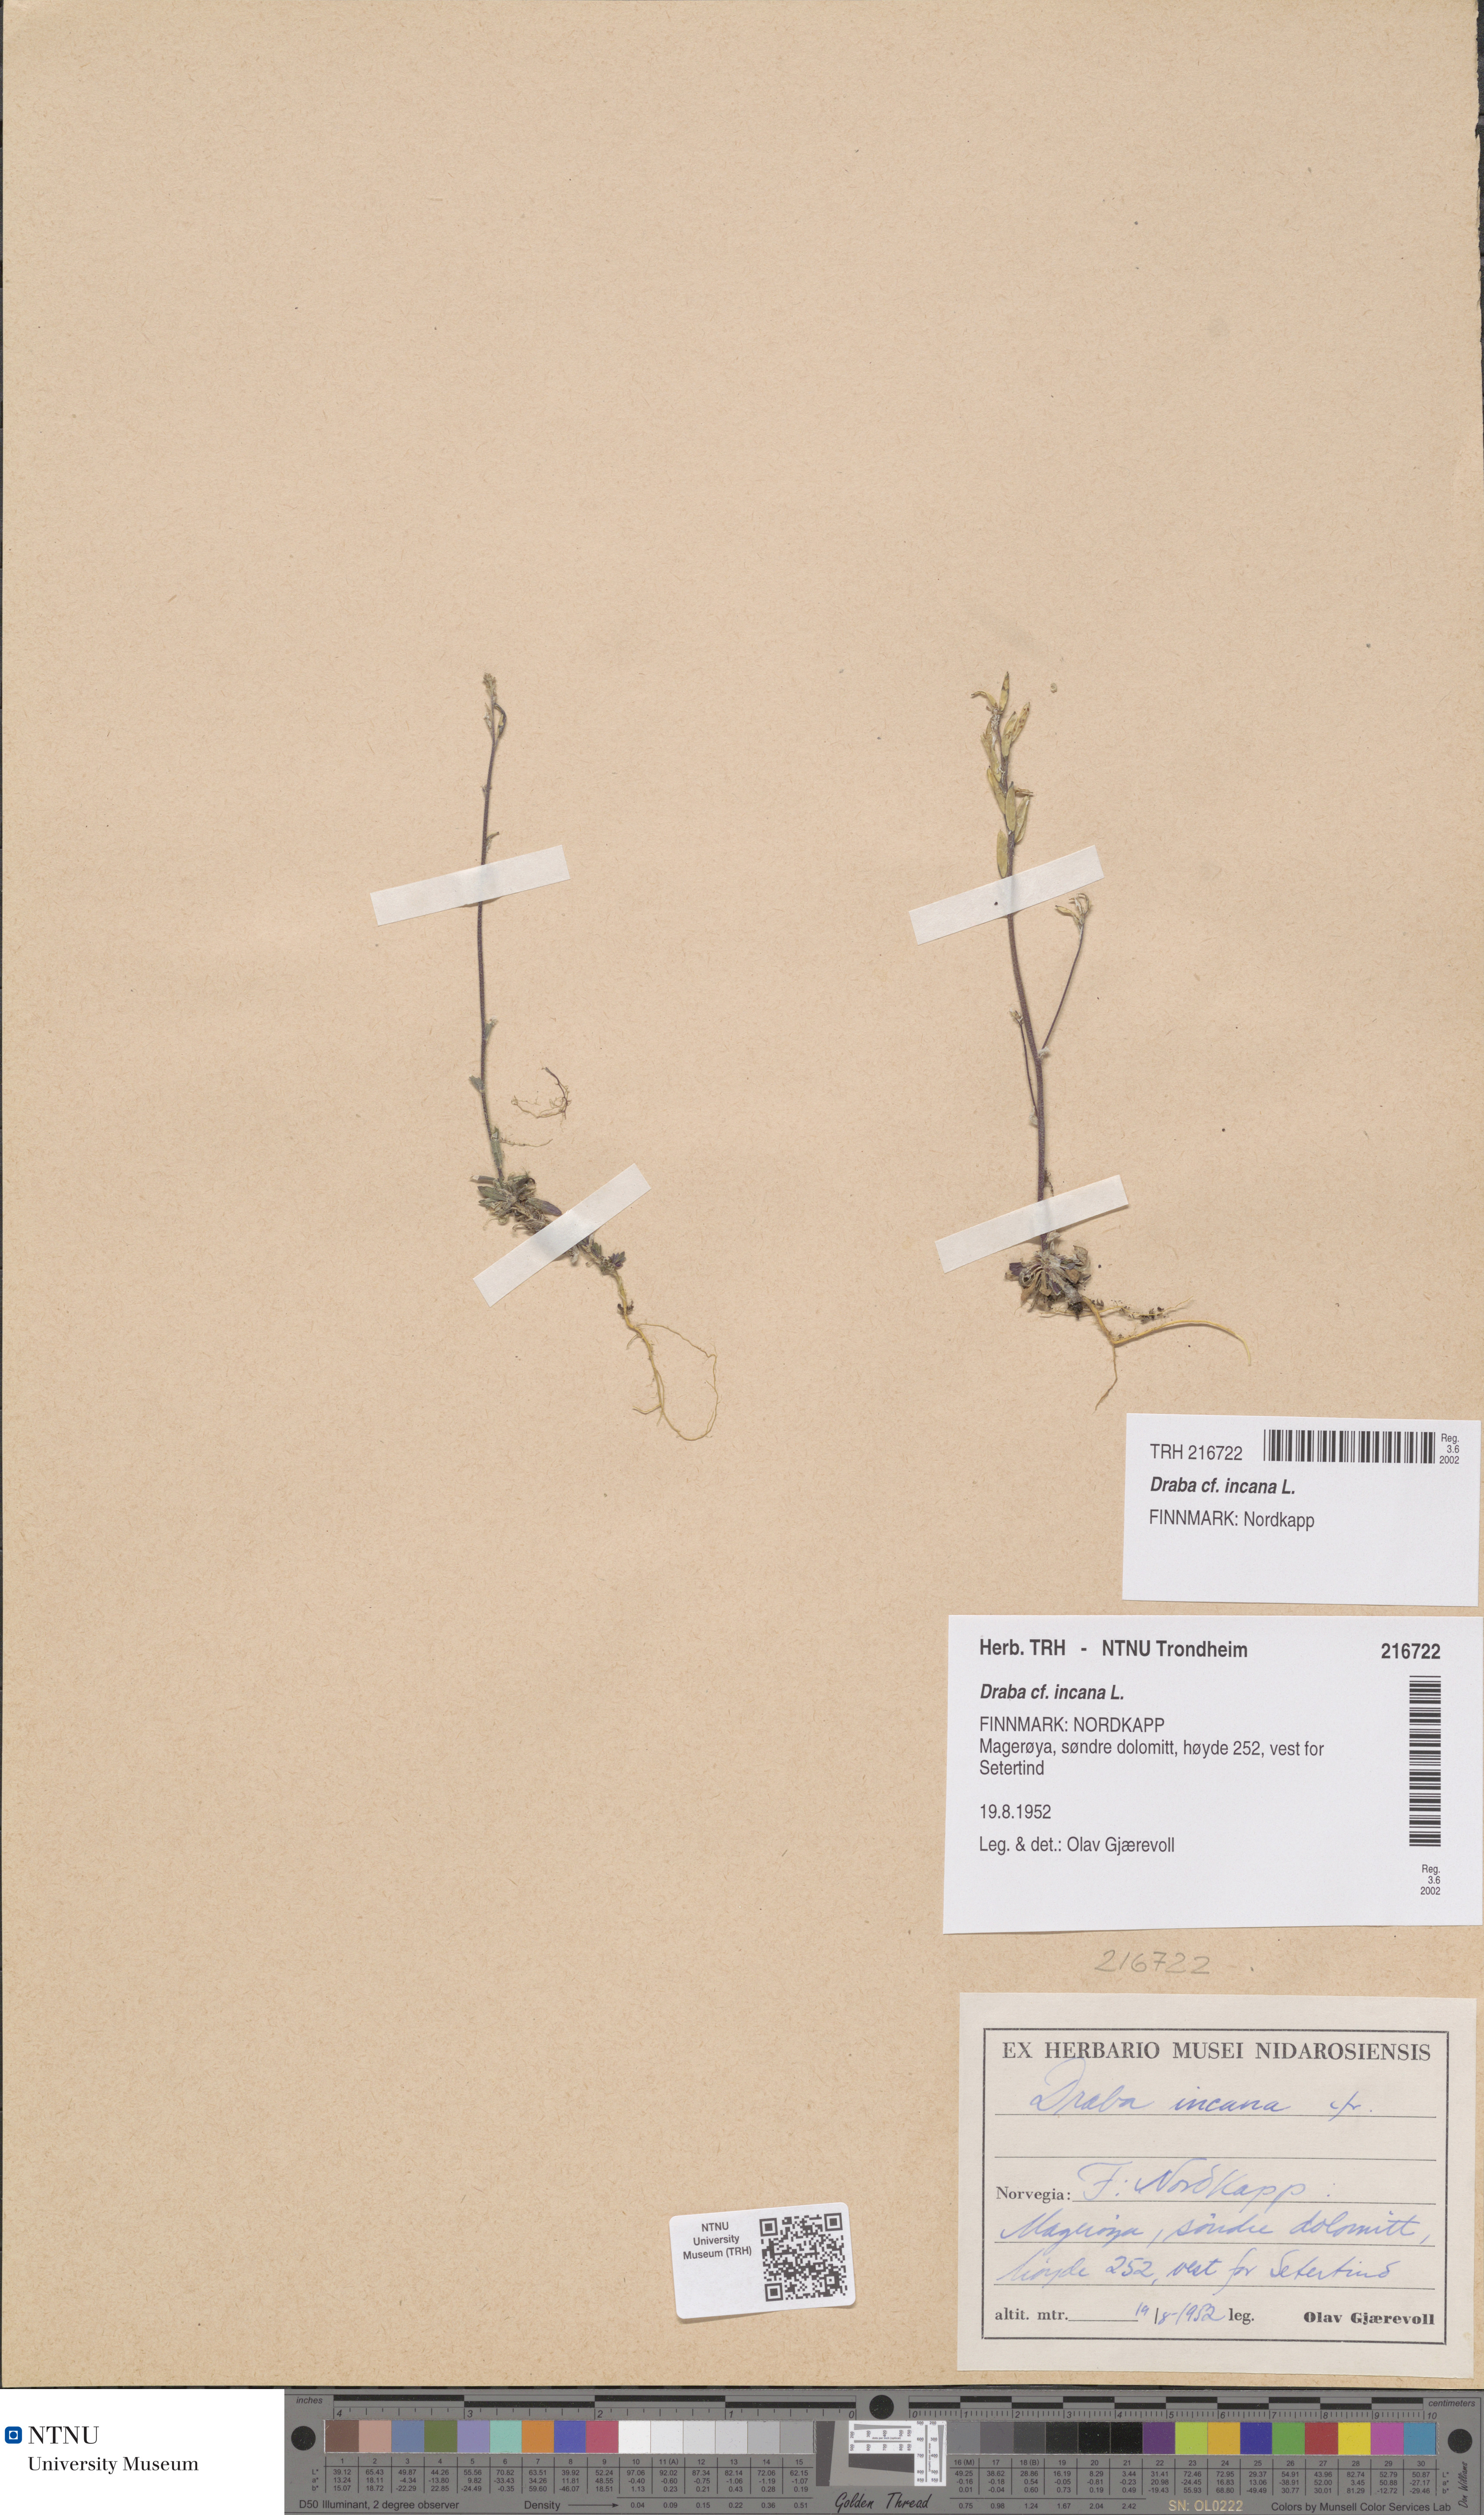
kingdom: Plantae
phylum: Tracheophyta
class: Magnoliopsida
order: Brassicales
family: Brassicaceae
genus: Draba
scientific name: Draba incana
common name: Hoary whitlow-grass
